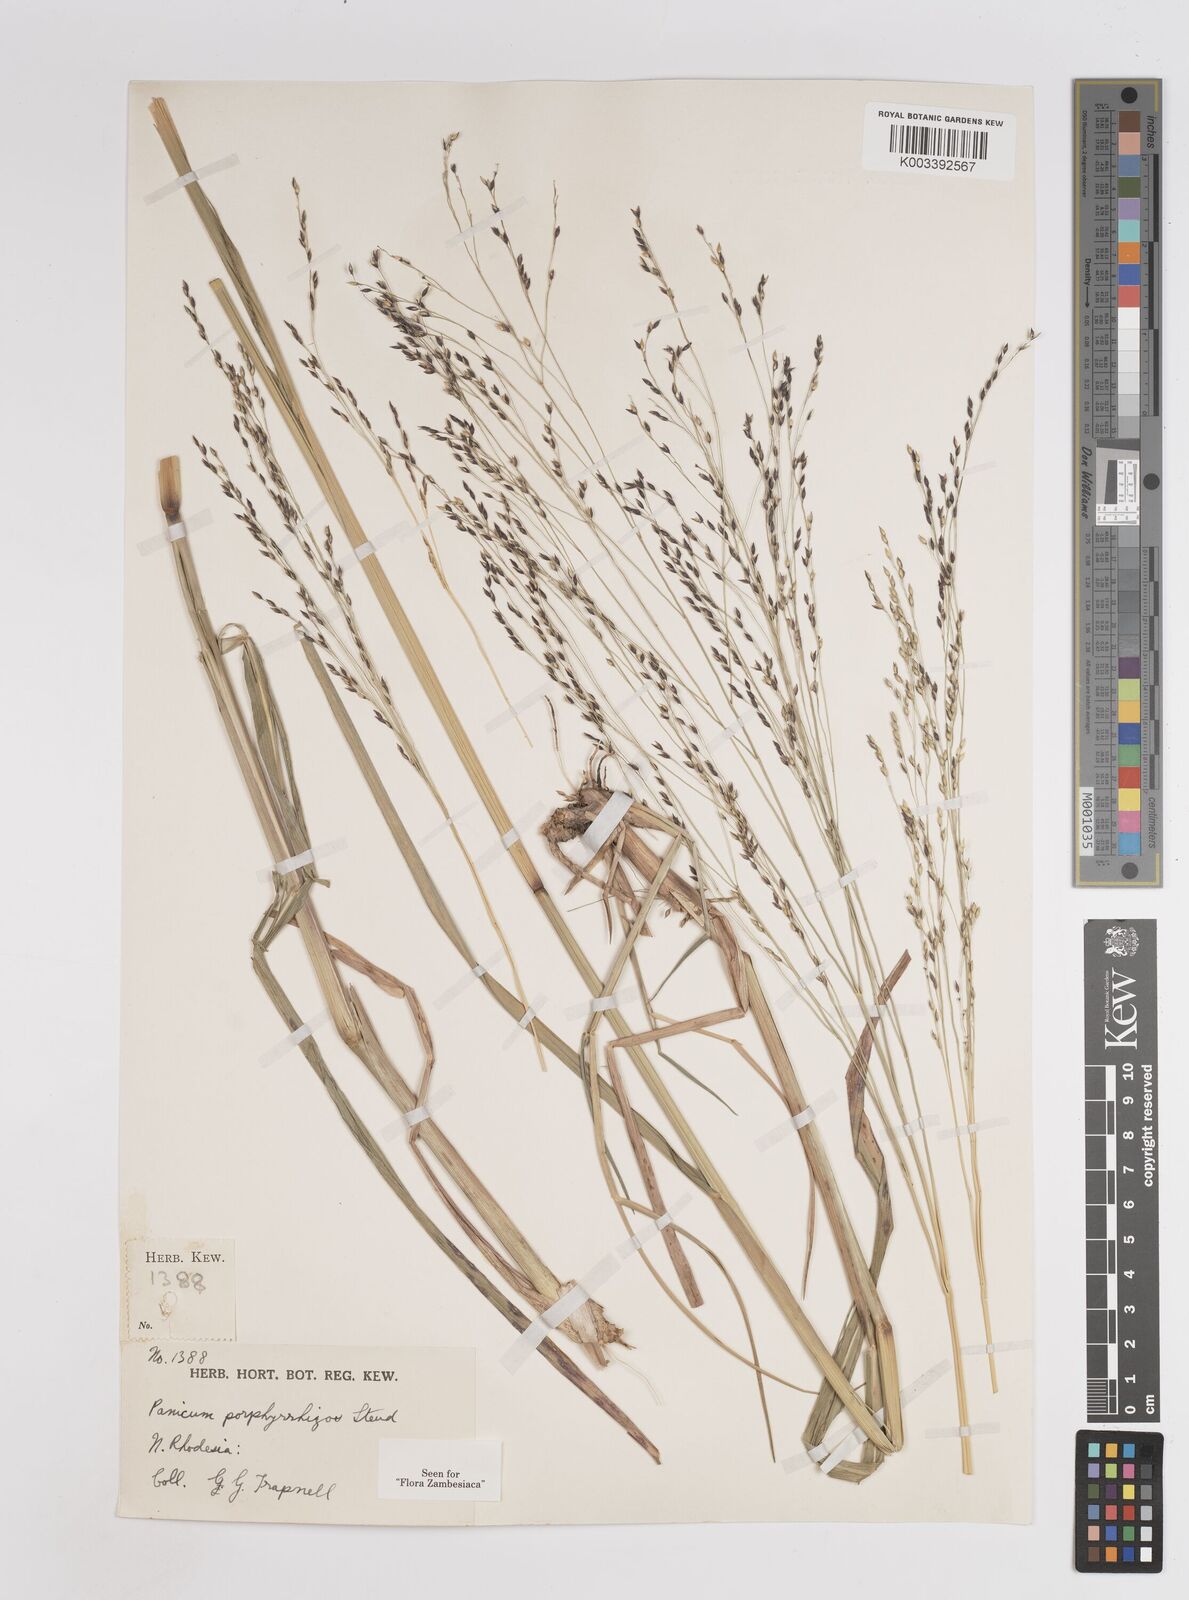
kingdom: Plantae
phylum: Tracheophyta
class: Liliopsida
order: Poales
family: Poaceae
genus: Panicum
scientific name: Panicum porphyrrhizos
